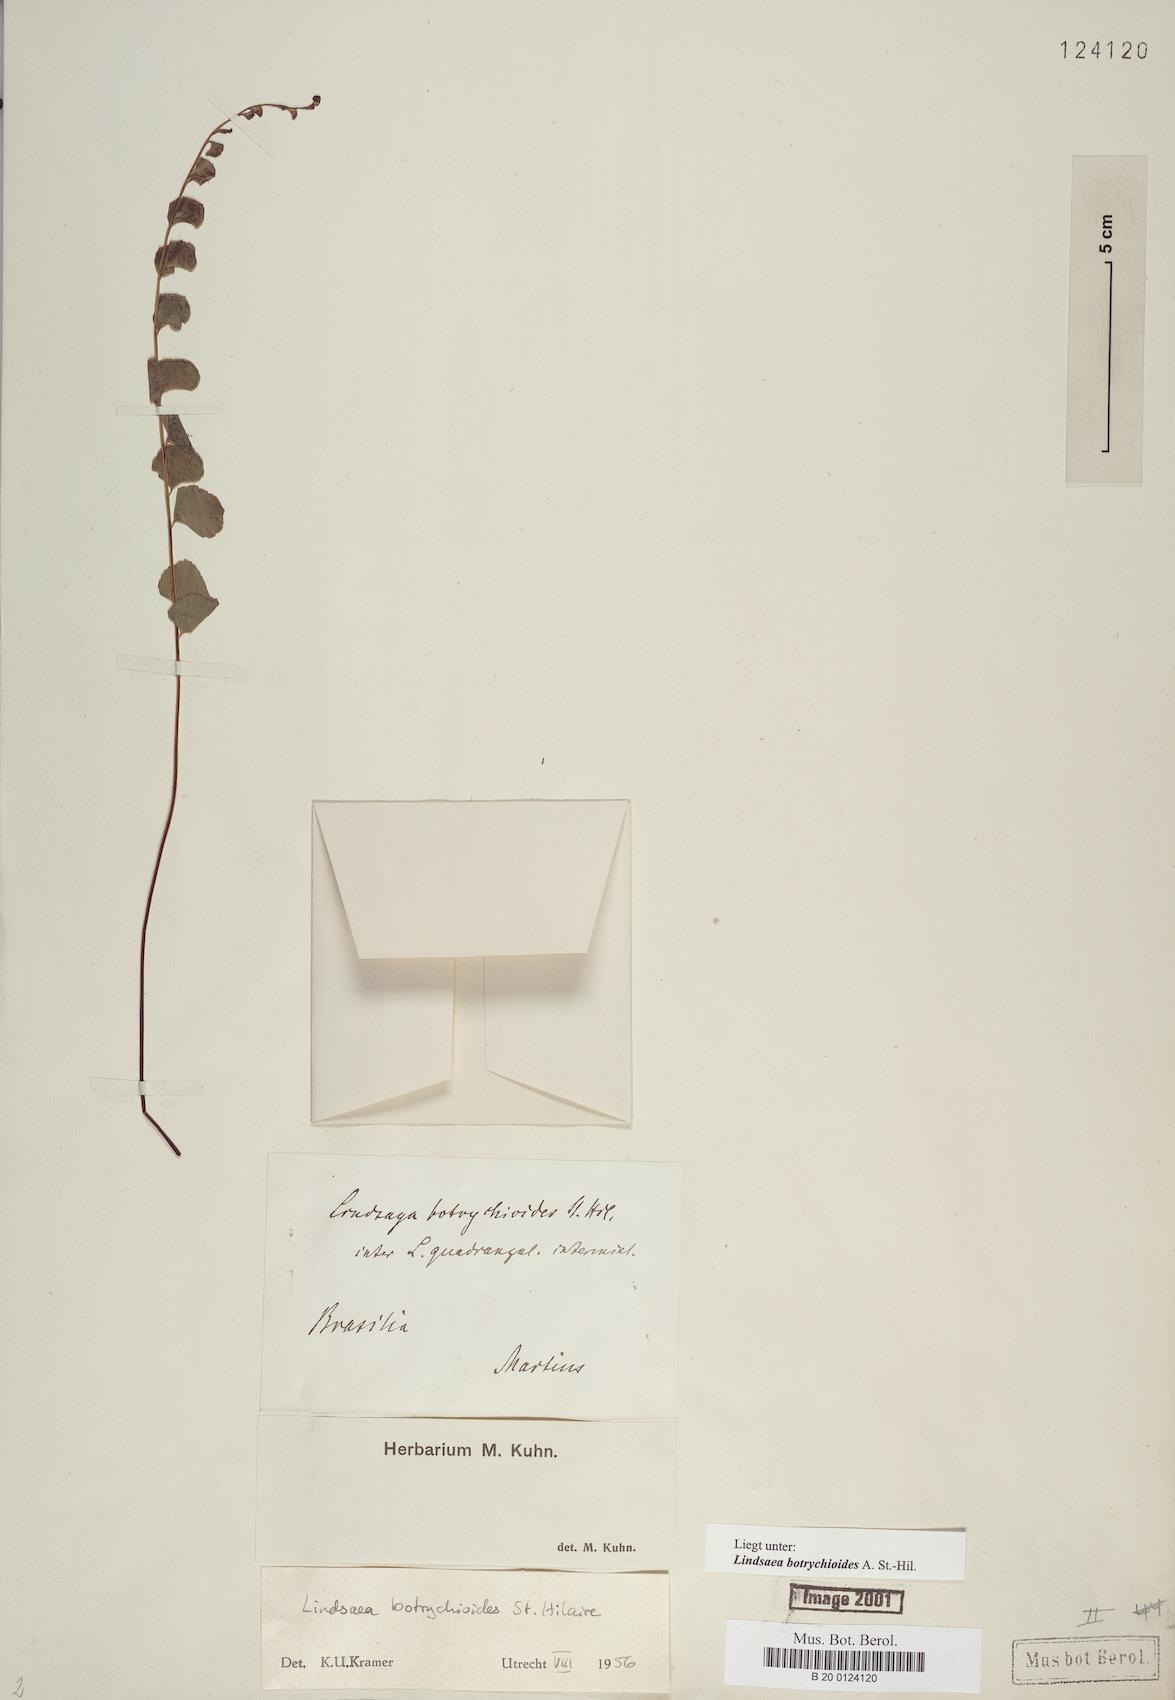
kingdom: Plantae
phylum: Tracheophyta
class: Polypodiopsida
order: Polypodiales
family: Lindsaeaceae
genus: Lindsaea
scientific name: Lindsaea botrychioides
